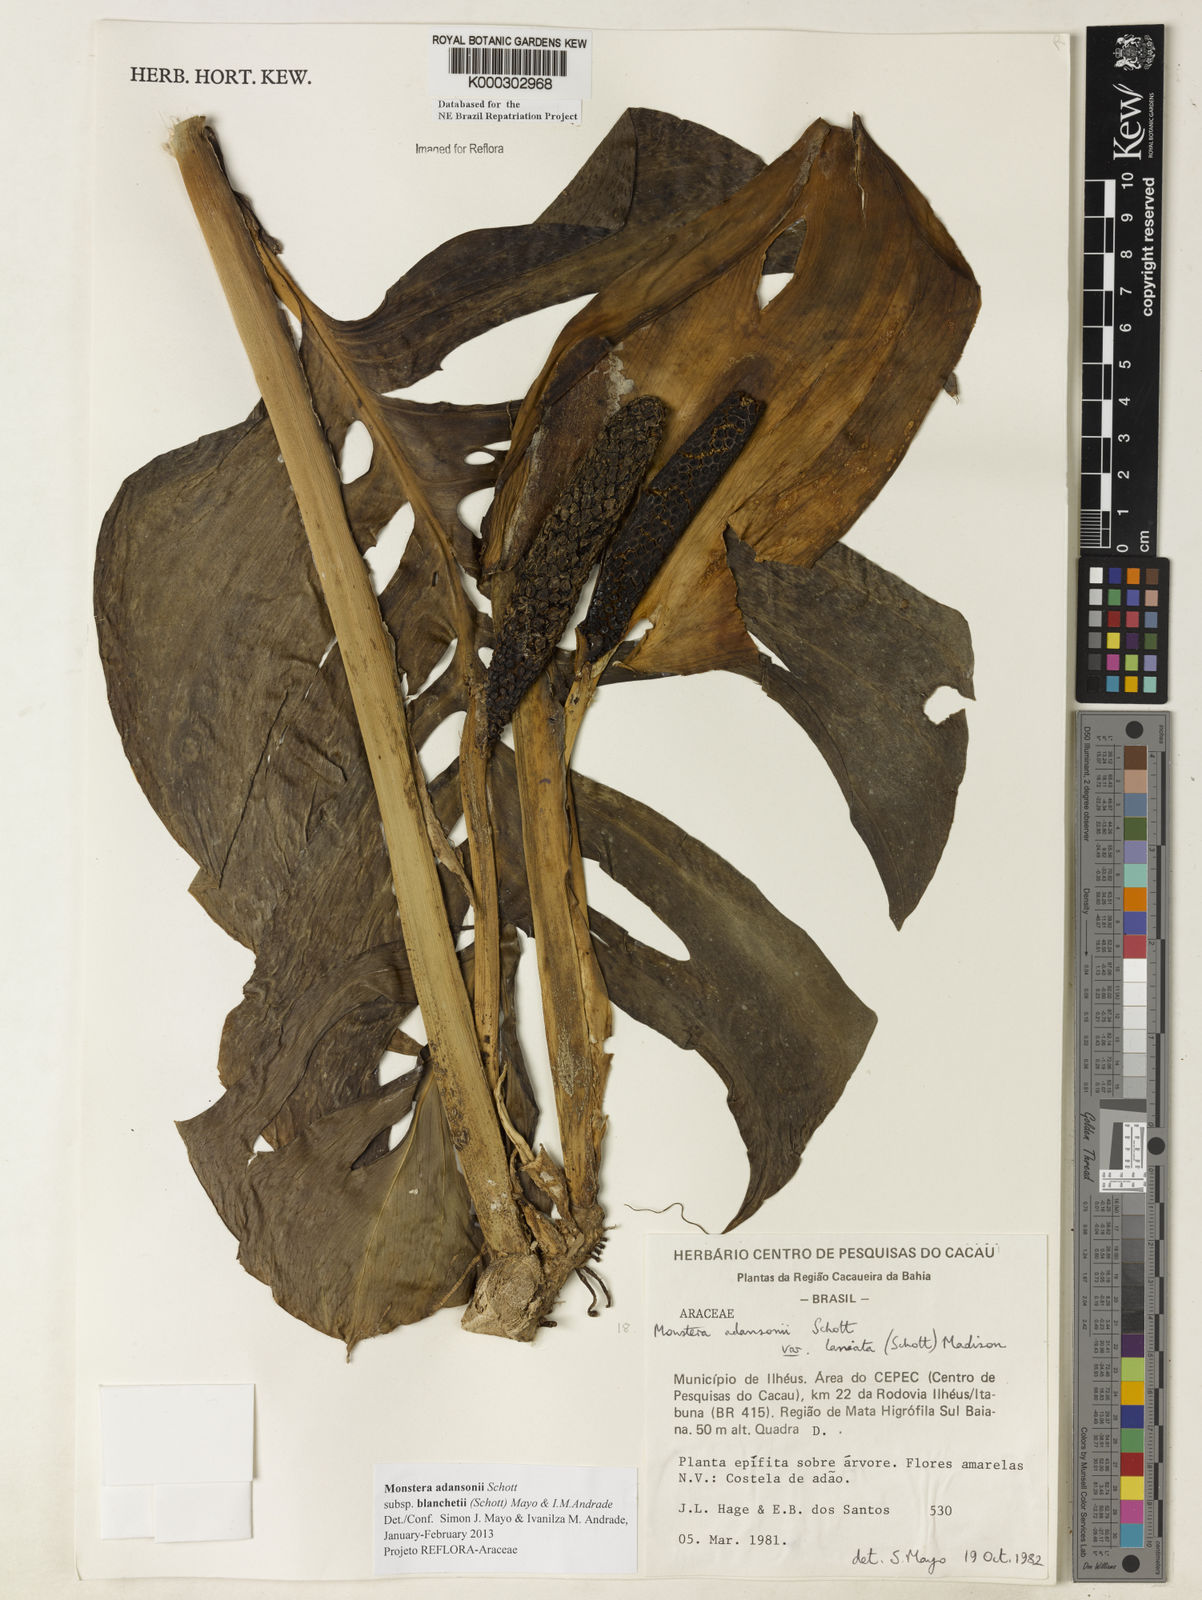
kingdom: Plantae
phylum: Tracheophyta
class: Liliopsida
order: Alismatales
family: Araceae
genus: Monstera
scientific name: Monstera adansonii
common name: Tarovine
